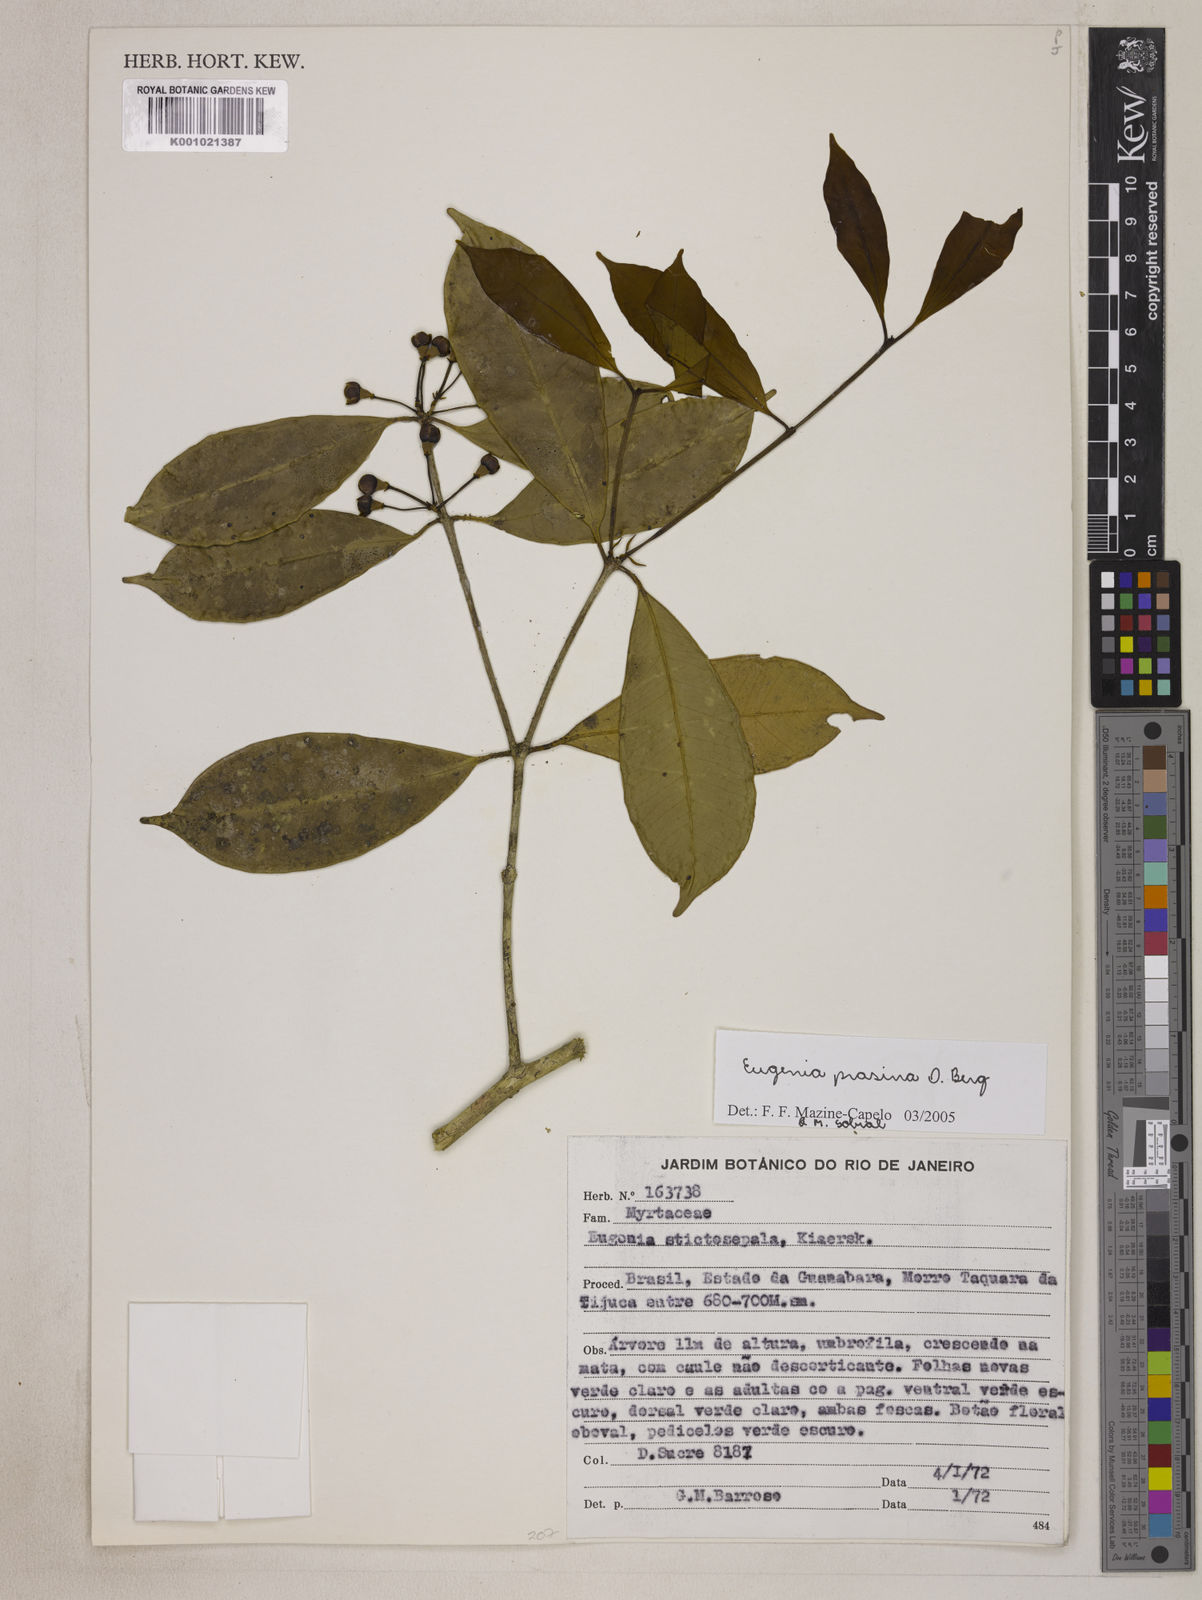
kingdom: Plantae
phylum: Tracheophyta
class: Magnoliopsida
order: Myrtales
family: Myrtaceae
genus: Eugenia
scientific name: Eugenia prasina
